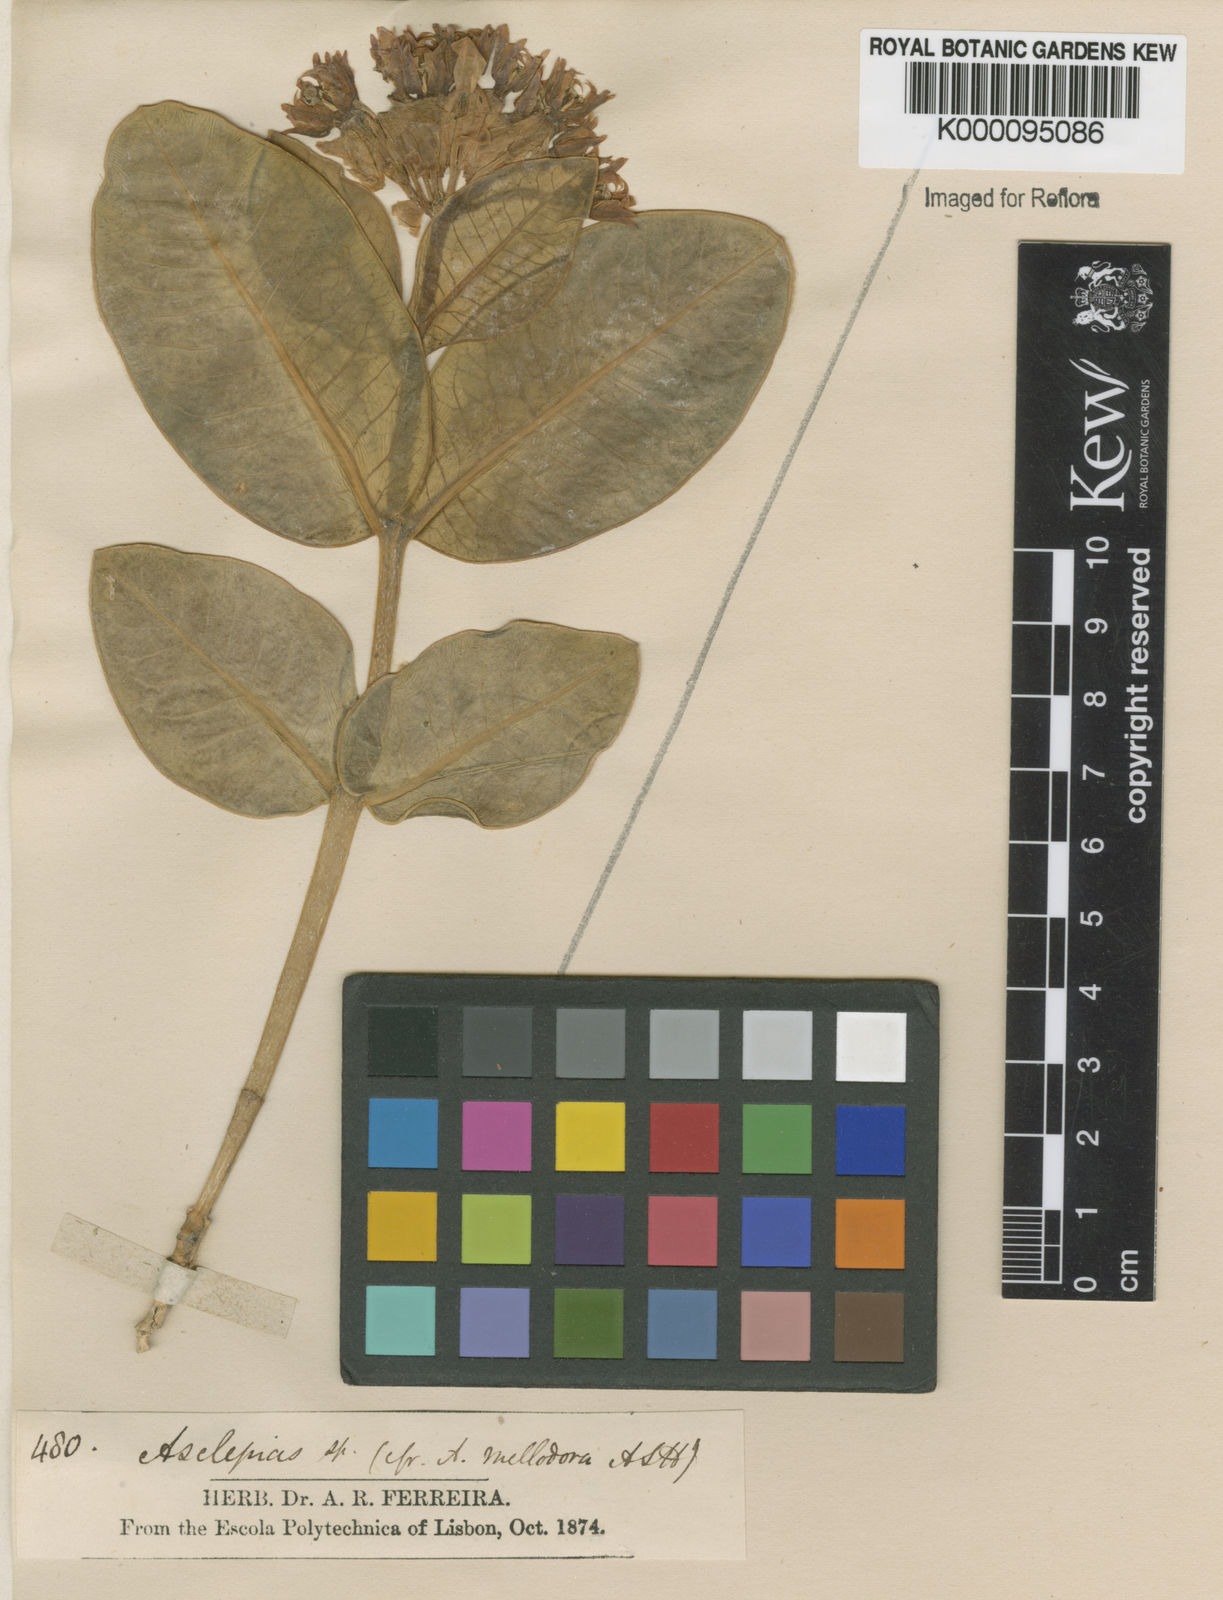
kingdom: Plantae
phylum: Tracheophyta
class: Magnoliopsida
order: Gentianales
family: Apocynaceae
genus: Asclepias
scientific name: Asclepias candida
